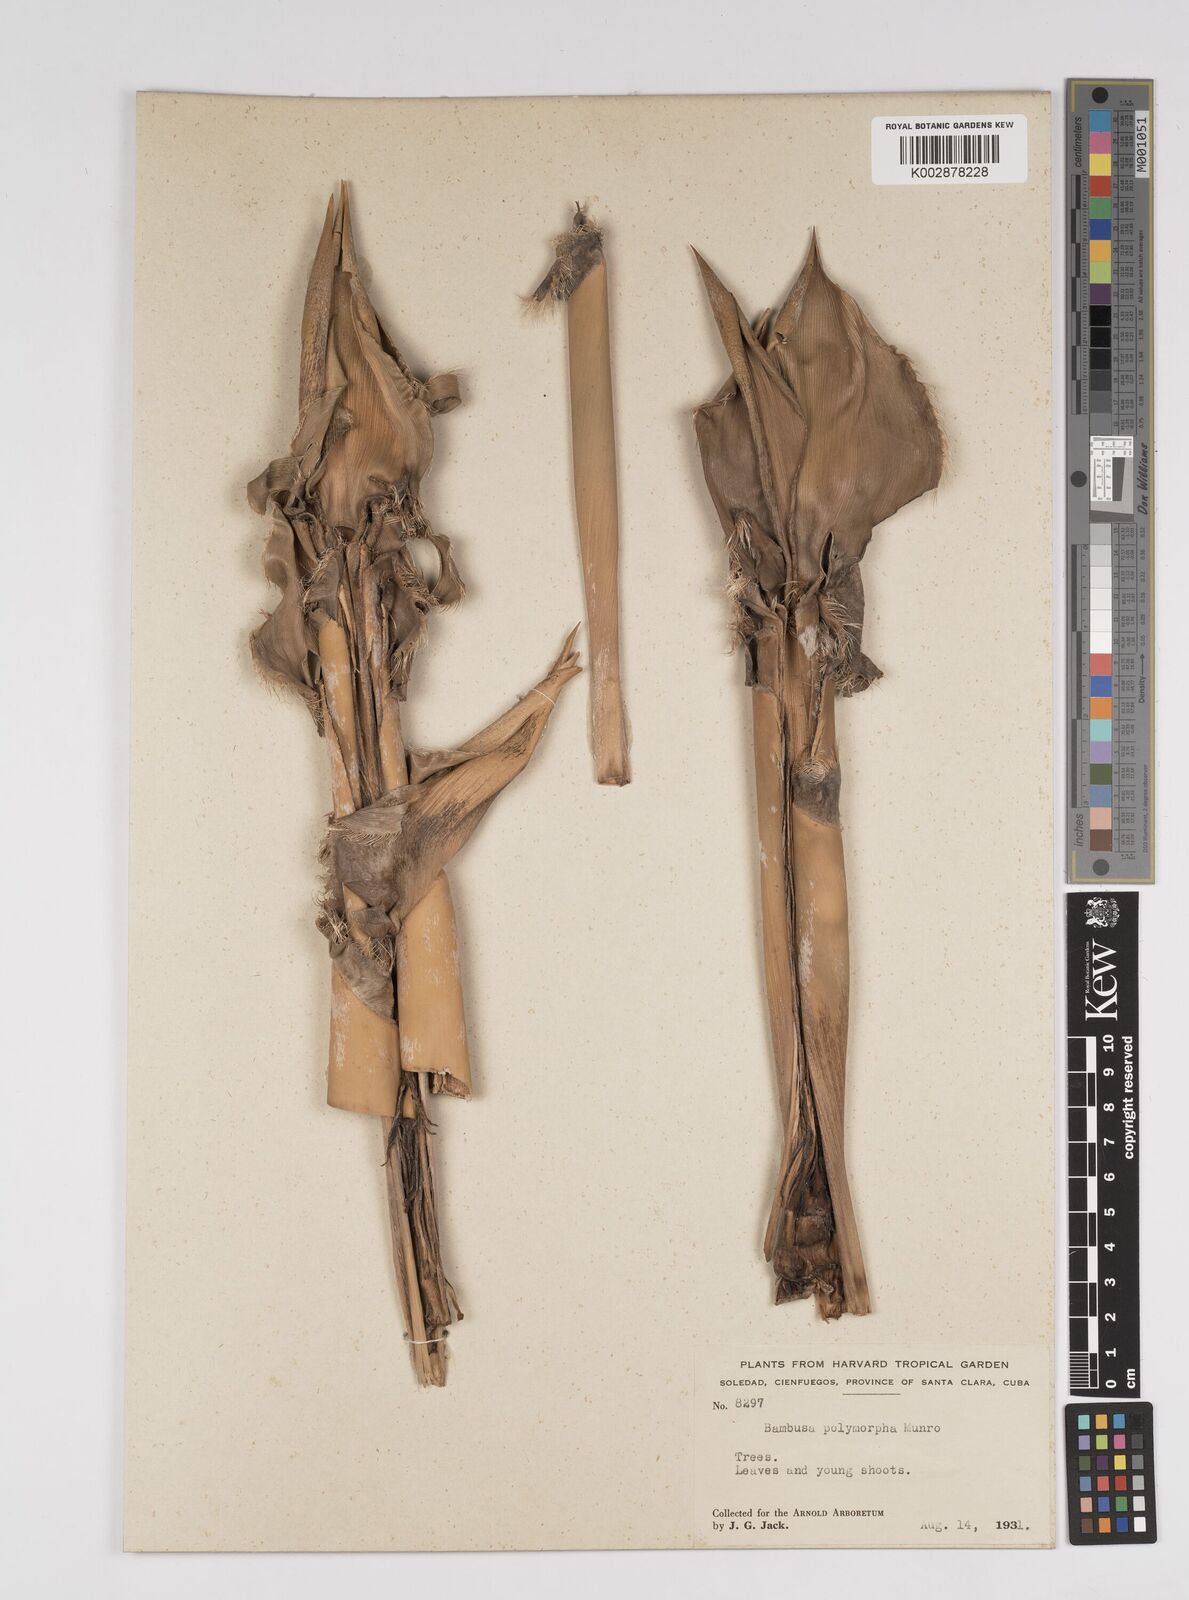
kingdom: Plantae
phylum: Tracheophyta
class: Liliopsida
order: Poales
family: Poaceae
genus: Bambusa
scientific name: Bambusa polymorpha
